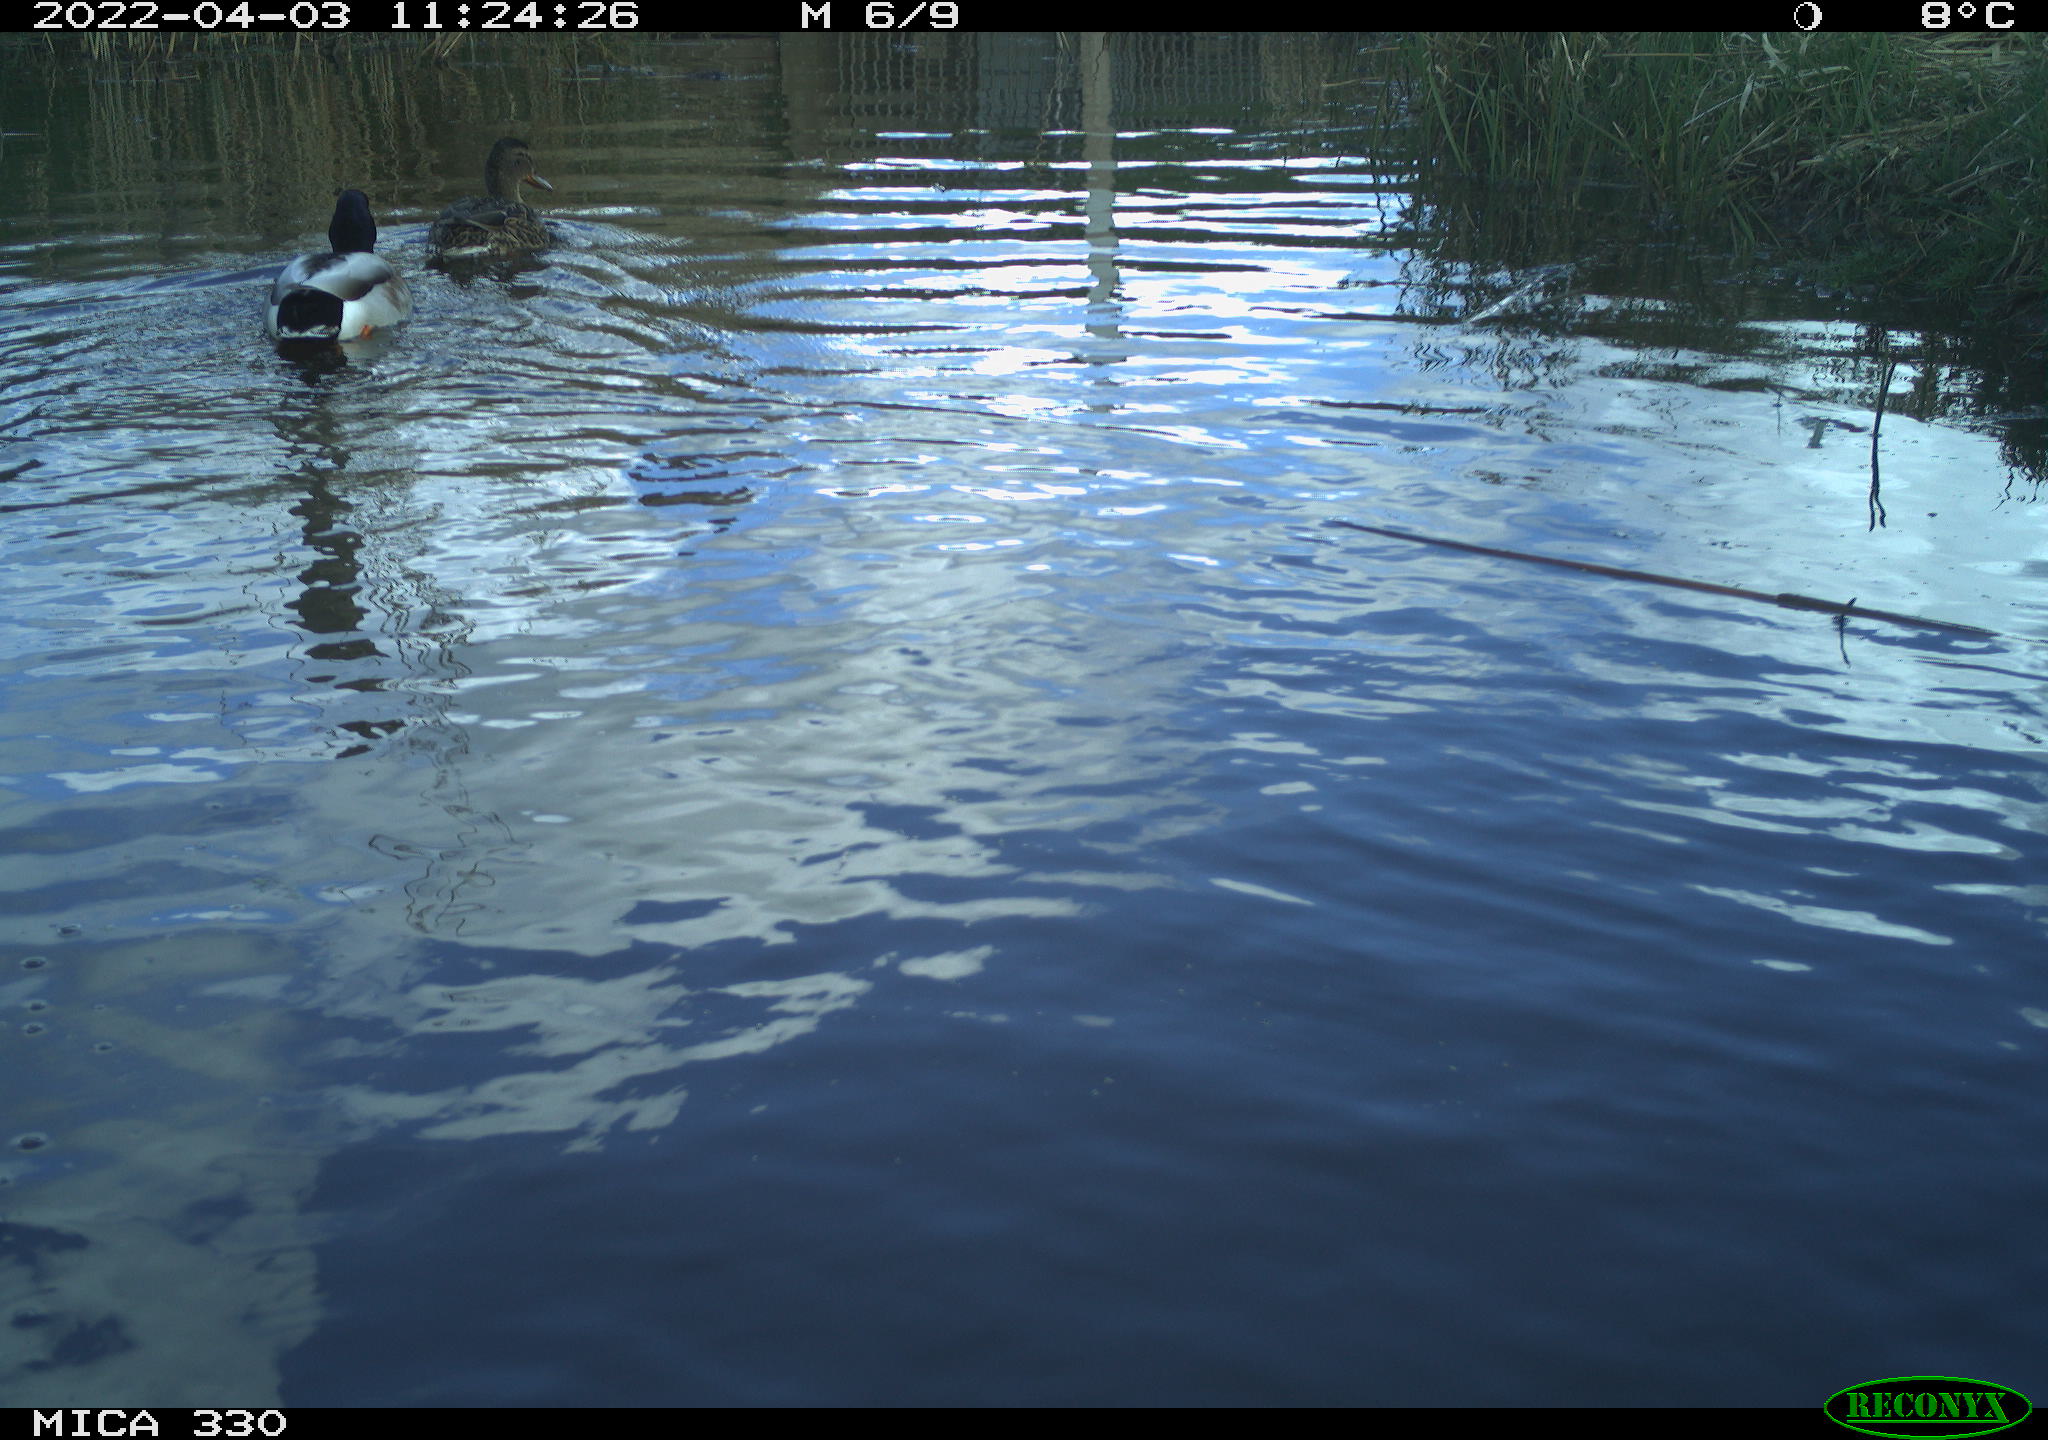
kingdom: Animalia
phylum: Chordata
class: Aves
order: Anseriformes
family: Anatidae
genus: Anas
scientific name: Anas platyrhynchos
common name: Mallard
